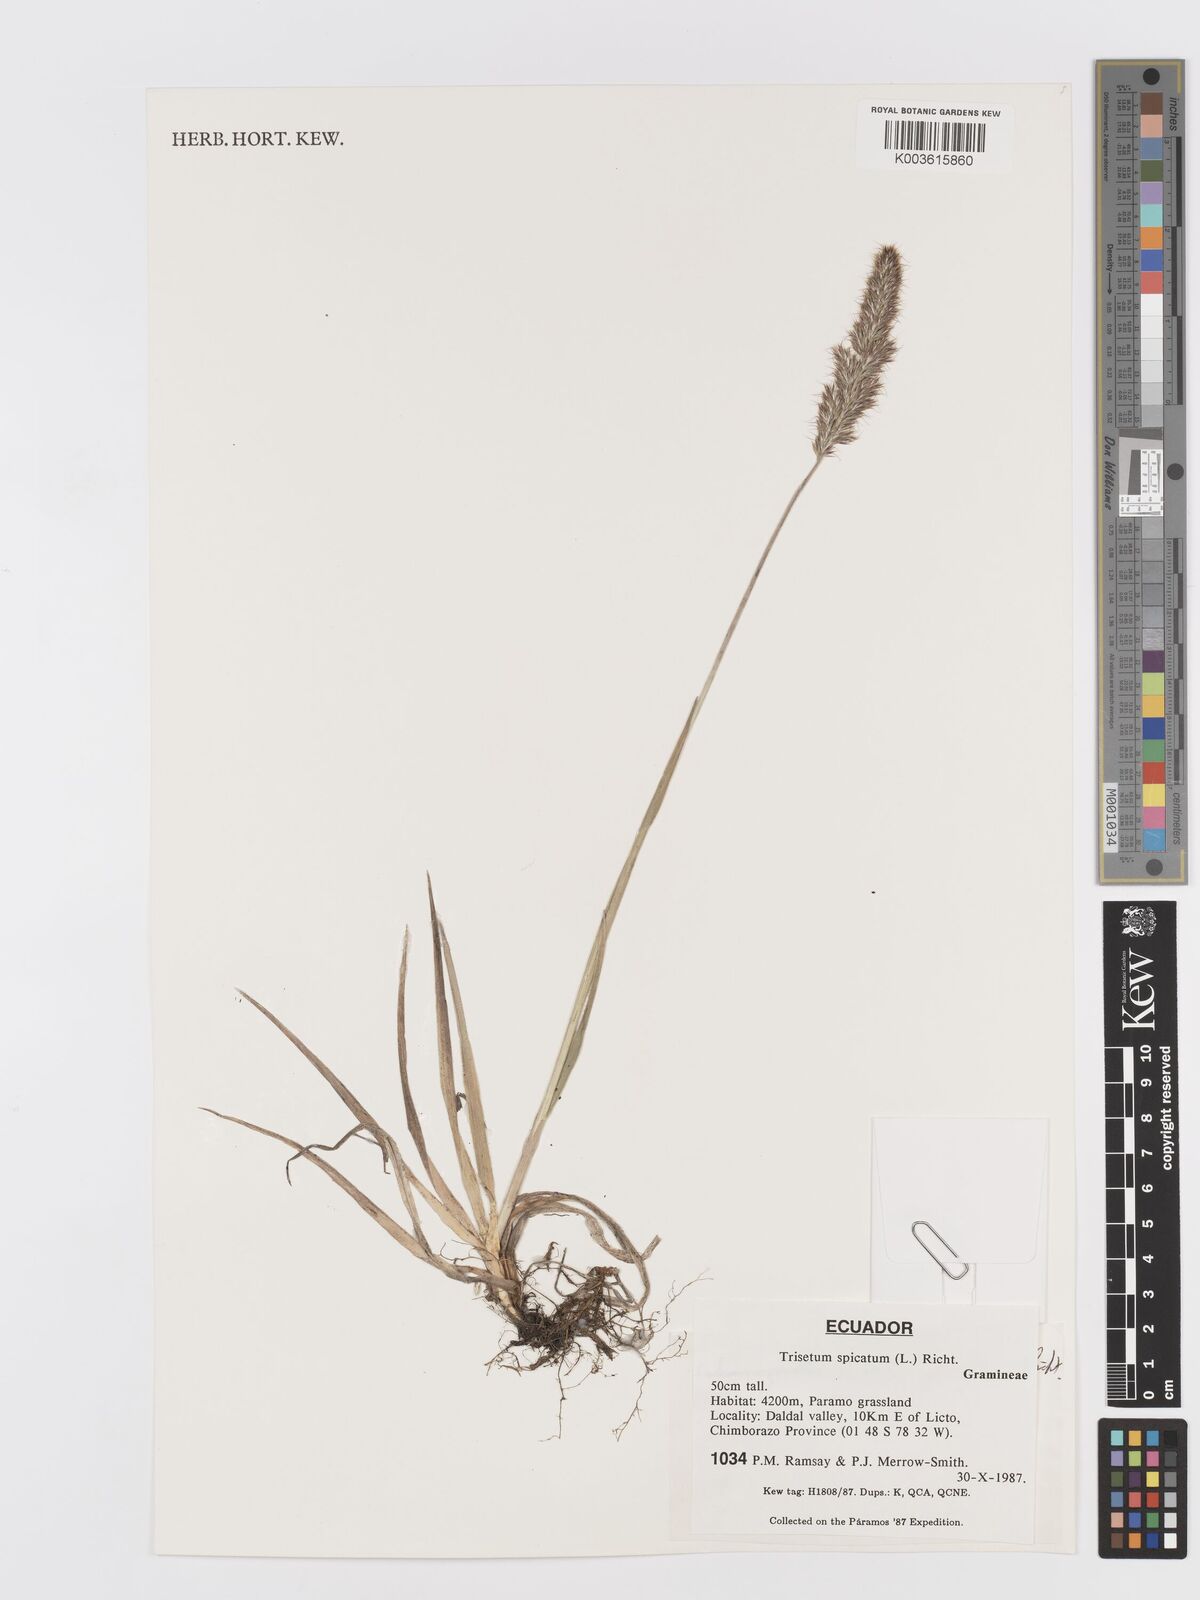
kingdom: Plantae
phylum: Tracheophyta
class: Liliopsida
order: Poales
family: Poaceae
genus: Koeleria
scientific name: Koeleria spicata
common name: Mountain trisetum
